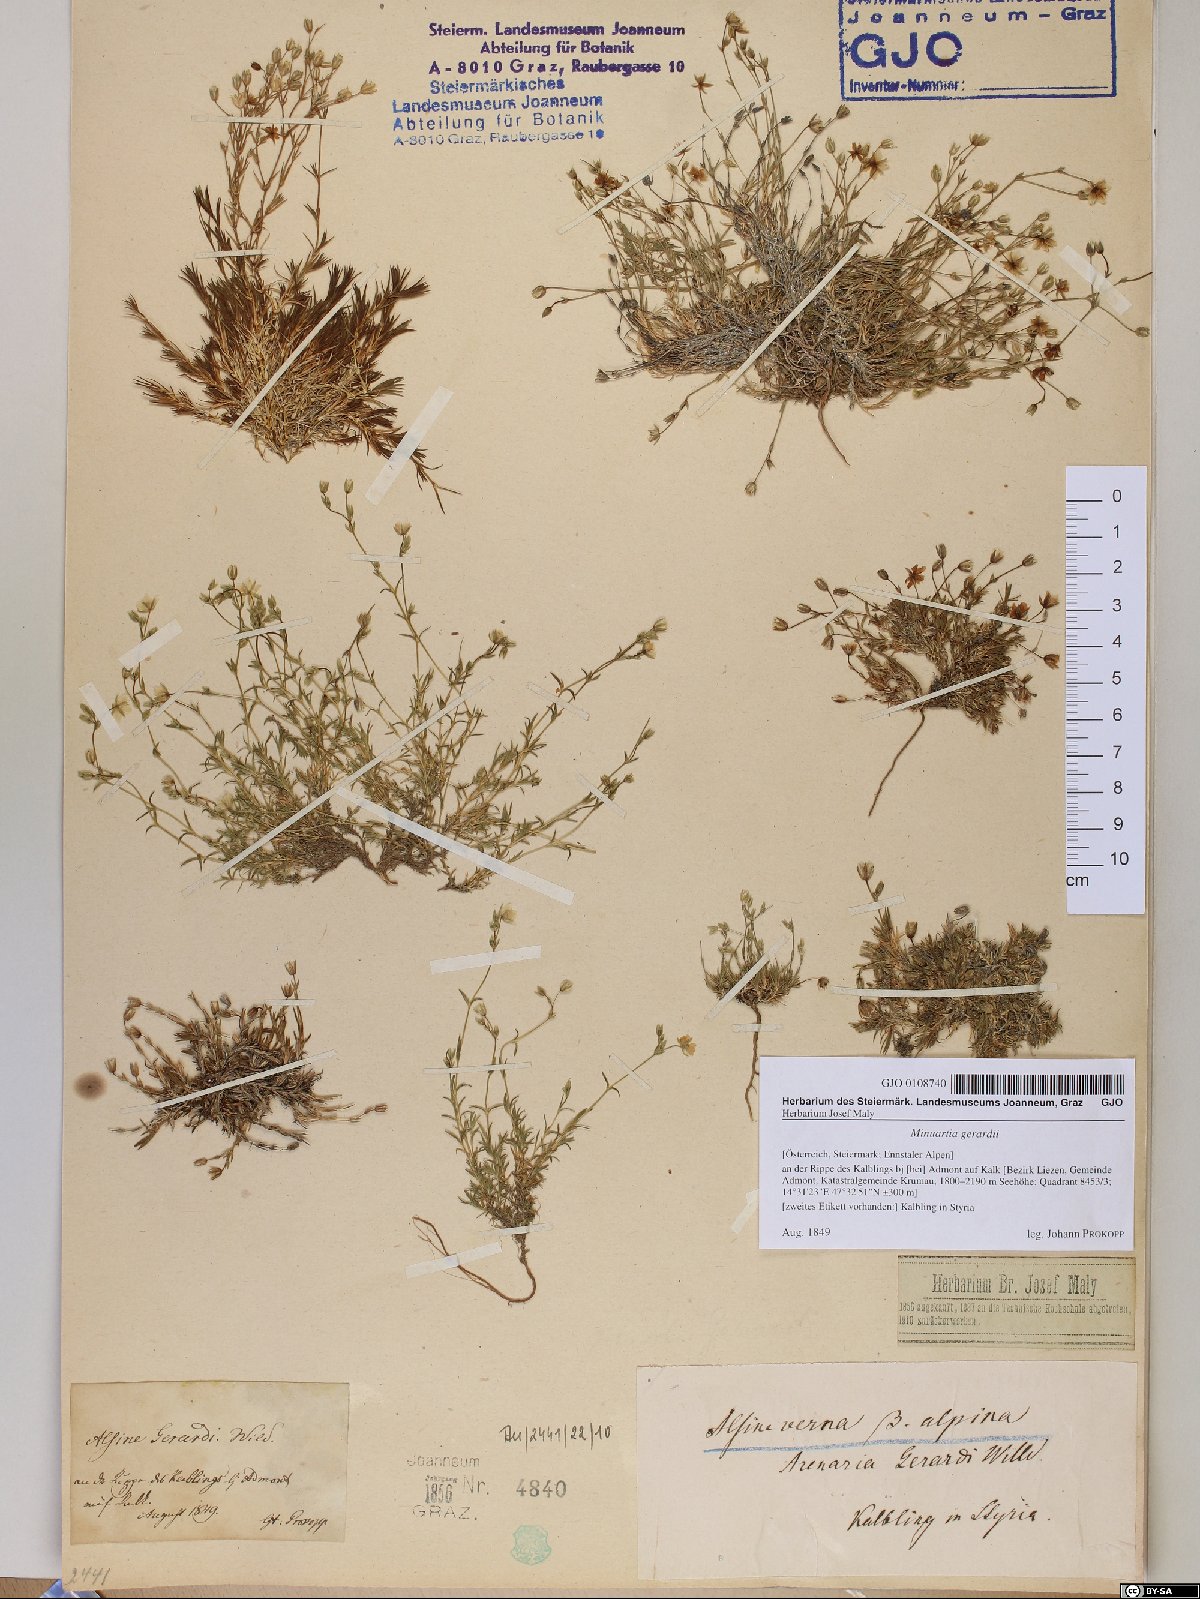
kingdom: Plantae
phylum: Tracheophyta
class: Magnoliopsida
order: Caryophyllales
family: Caryophyllaceae
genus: Sabulina
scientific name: Sabulina verna
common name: Spring sandwort
